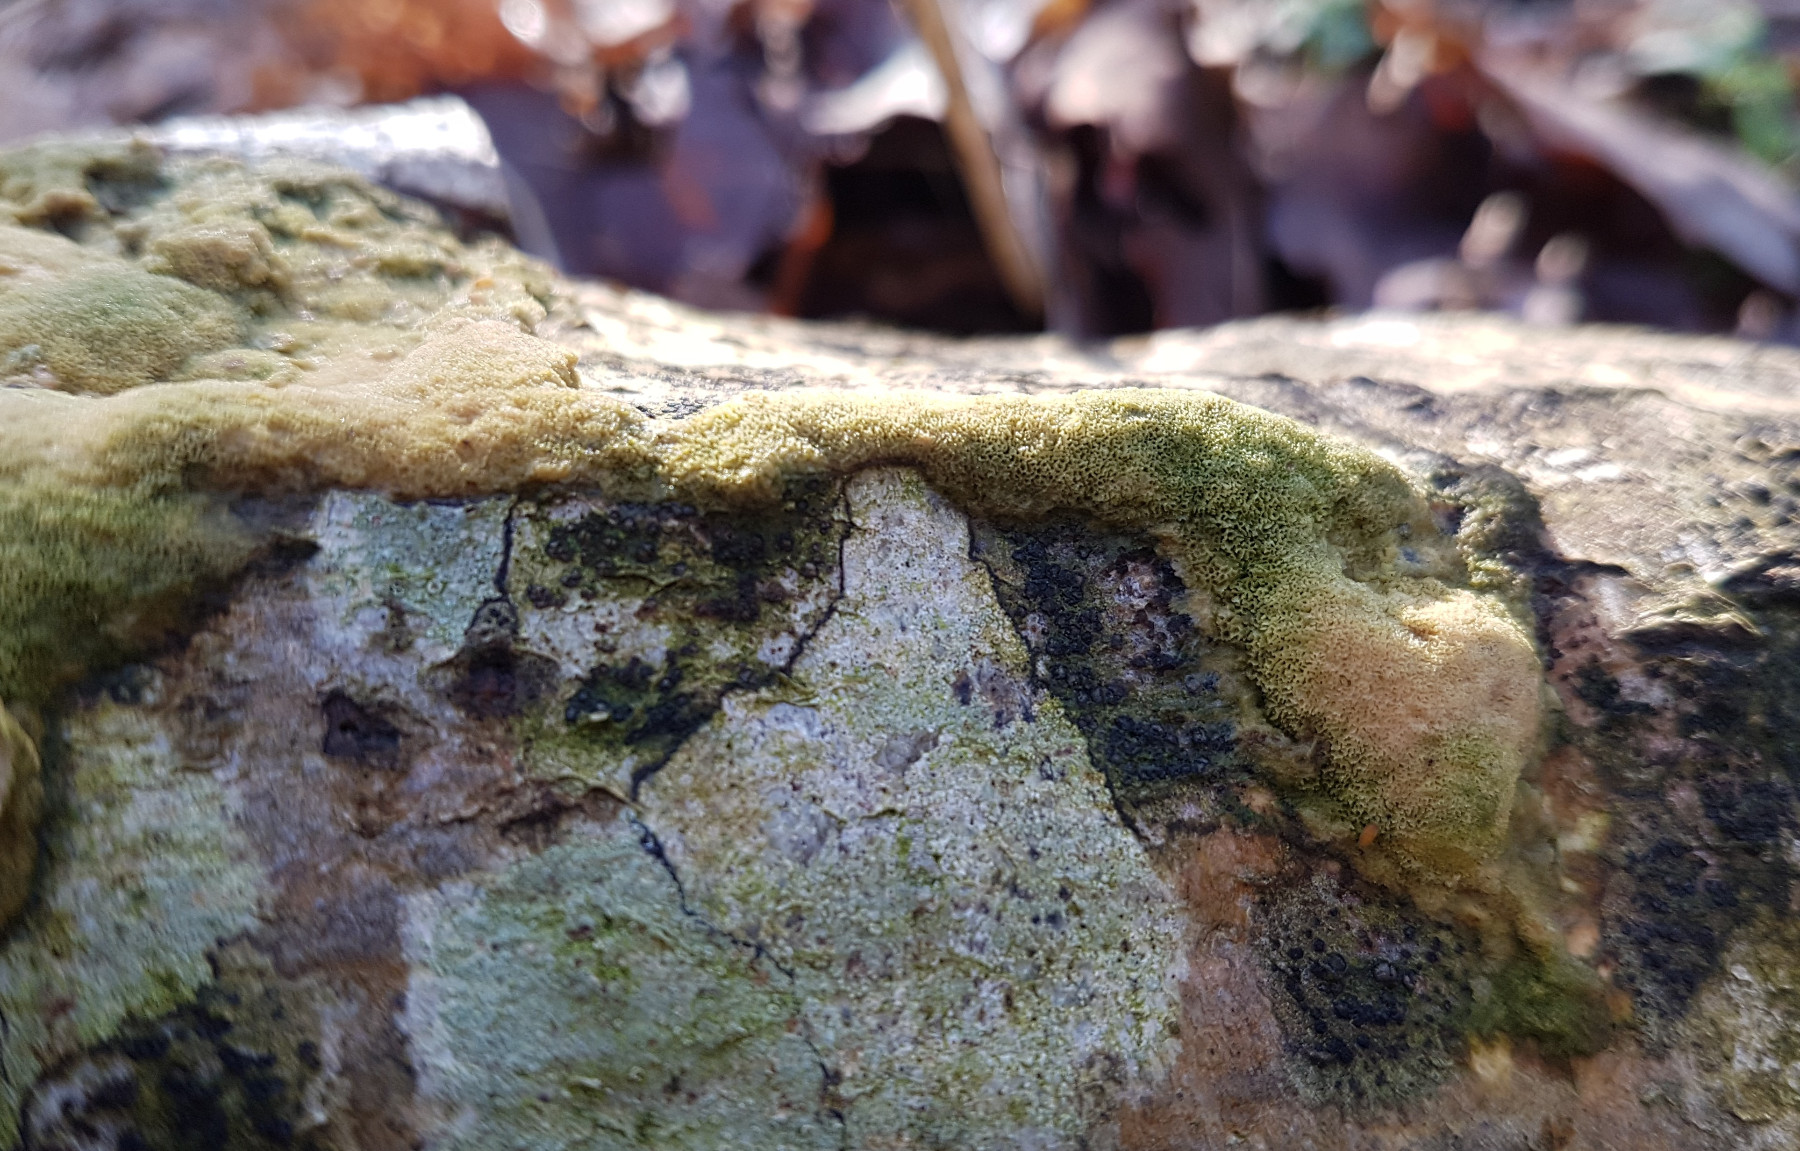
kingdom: Fungi
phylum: Basidiomycota
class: Agaricomycetes
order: Hymenochaetales
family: Schizoporaceae
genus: Xylodon
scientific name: Xylodon
